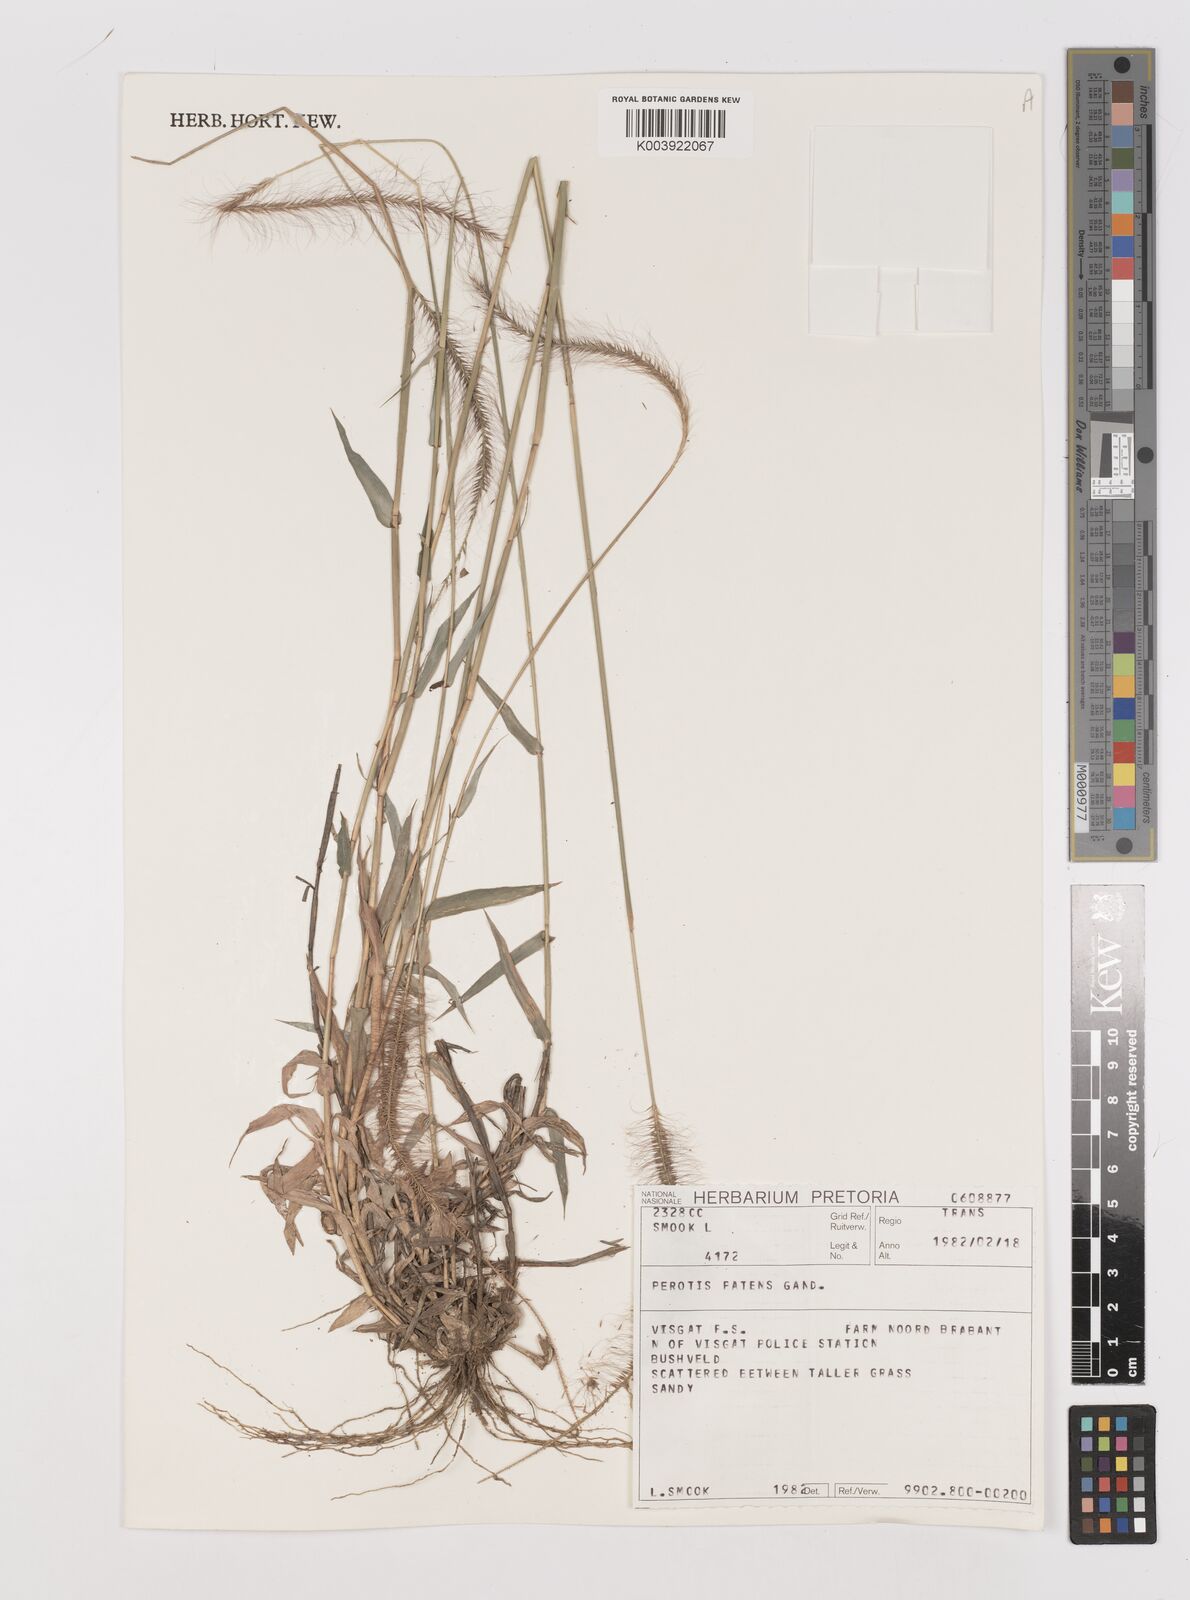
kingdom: Plantae
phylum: Tracheophyta
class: Liliopsida
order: Poales
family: Poaceae
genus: Perotis
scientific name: Perotis patens
